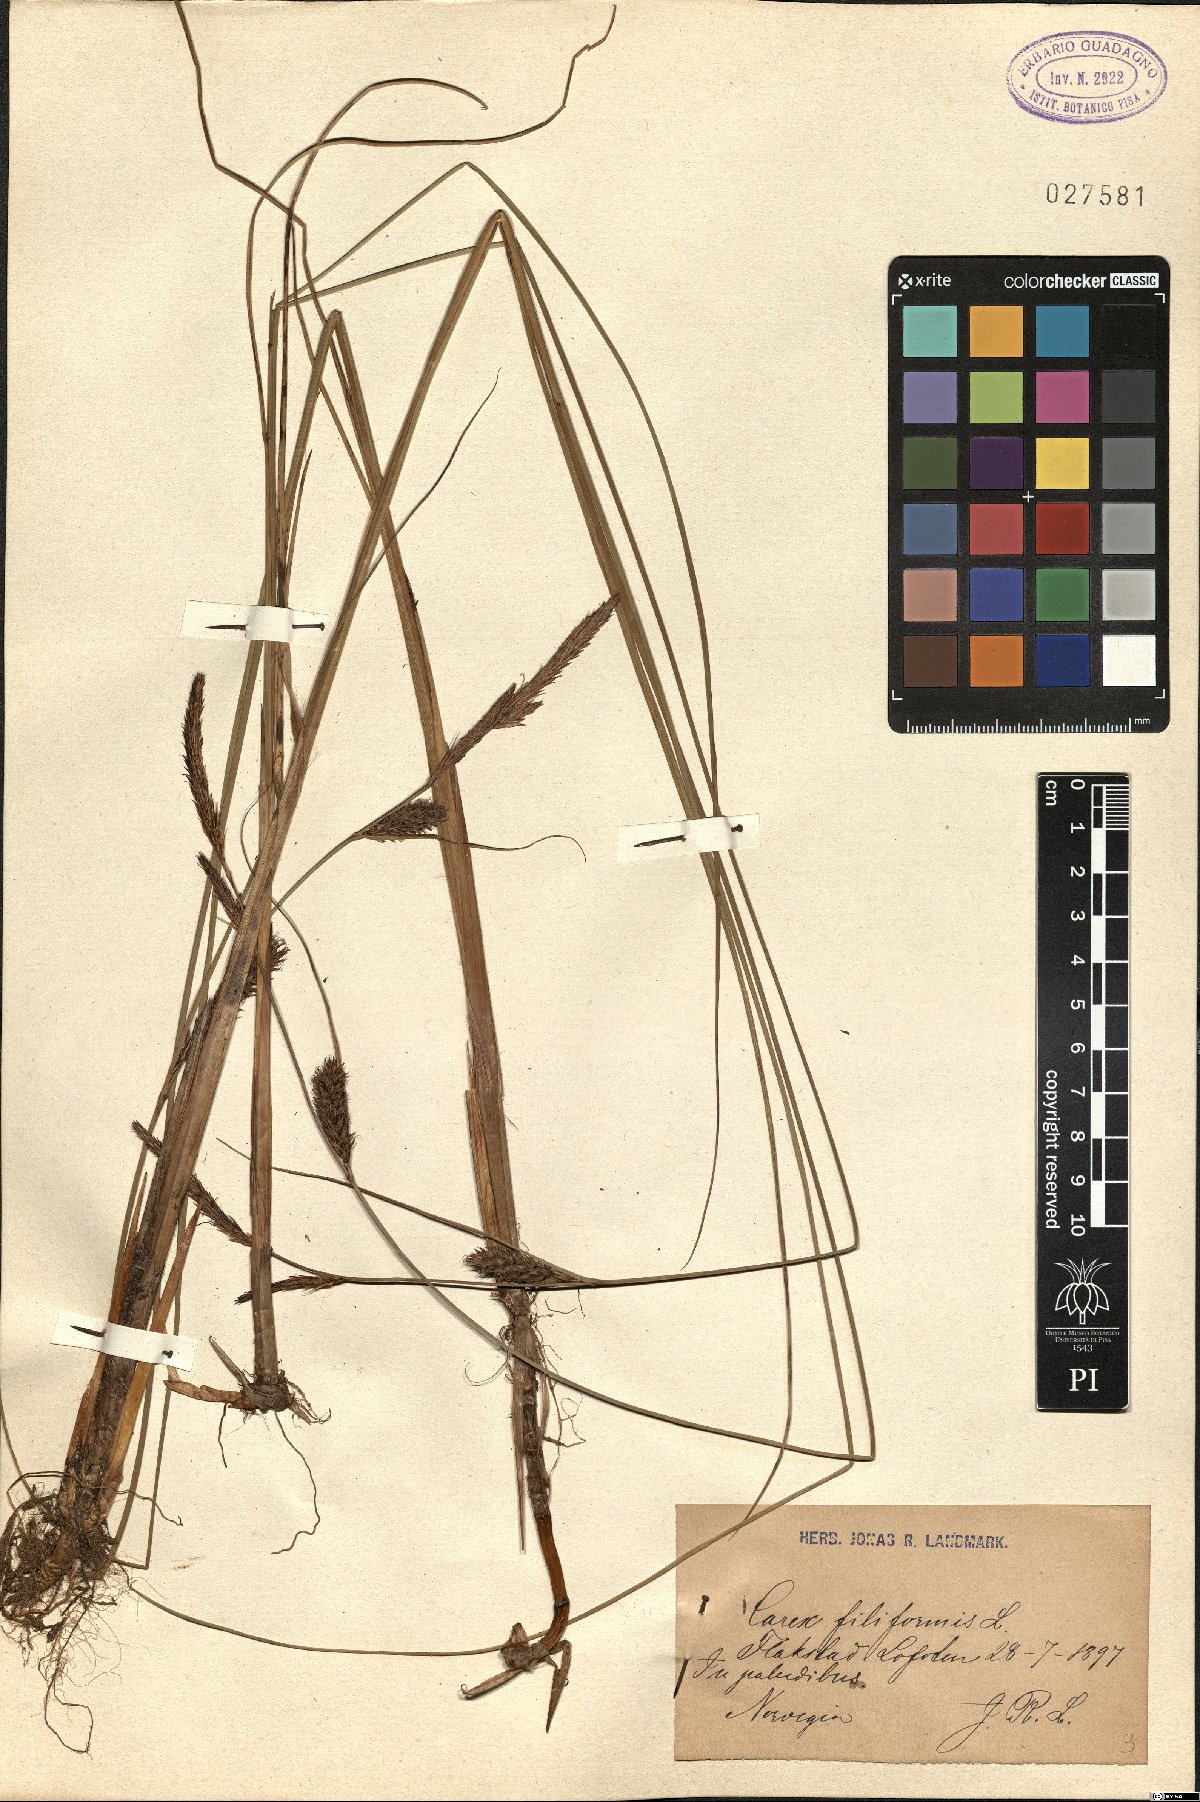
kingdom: Plantae
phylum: Tracheophyta
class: Liliopsida
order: Poales
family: Cyperaceae
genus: Carex
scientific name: Carex montana
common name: Soft-leaved sedge
